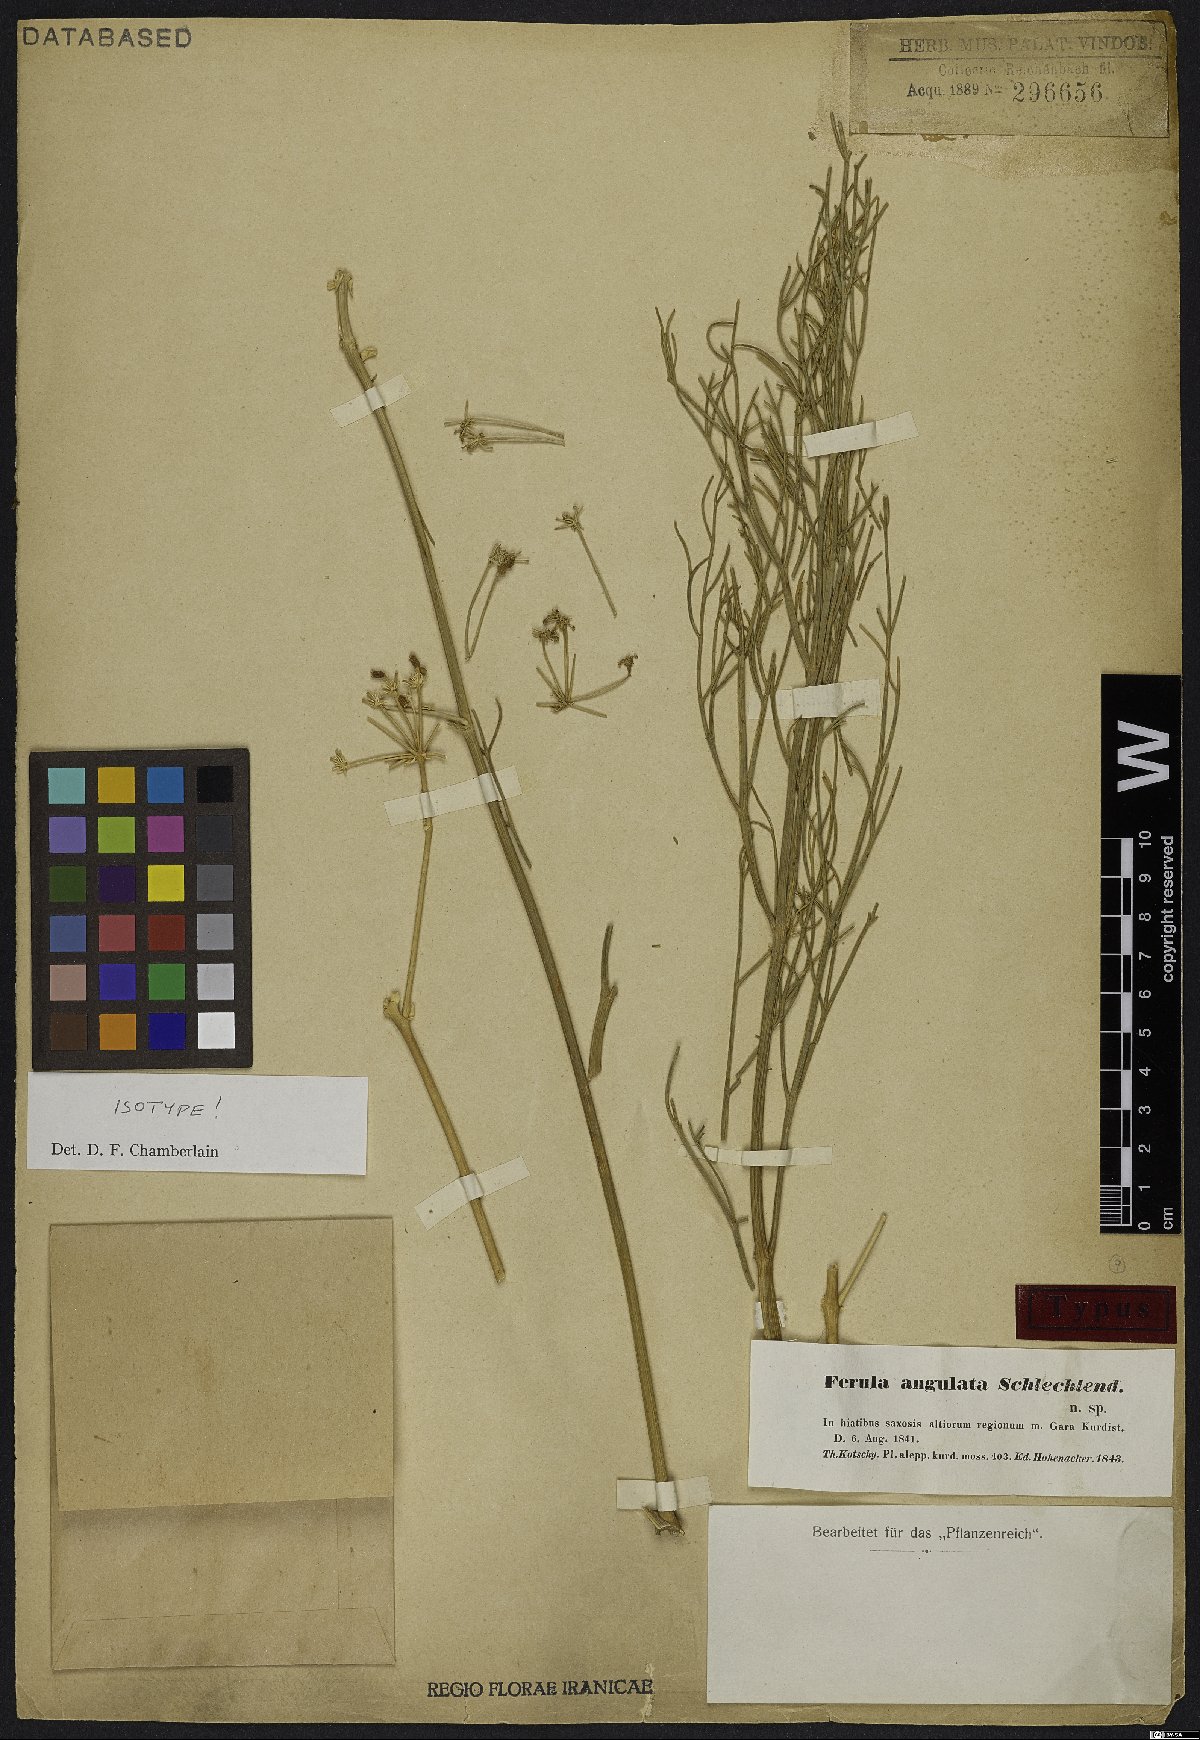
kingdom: Plantae
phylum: Tracheophyta
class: Magnoliopsida
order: Apiales
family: Apiaceae
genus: Ferulago
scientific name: Ferulago angulata
